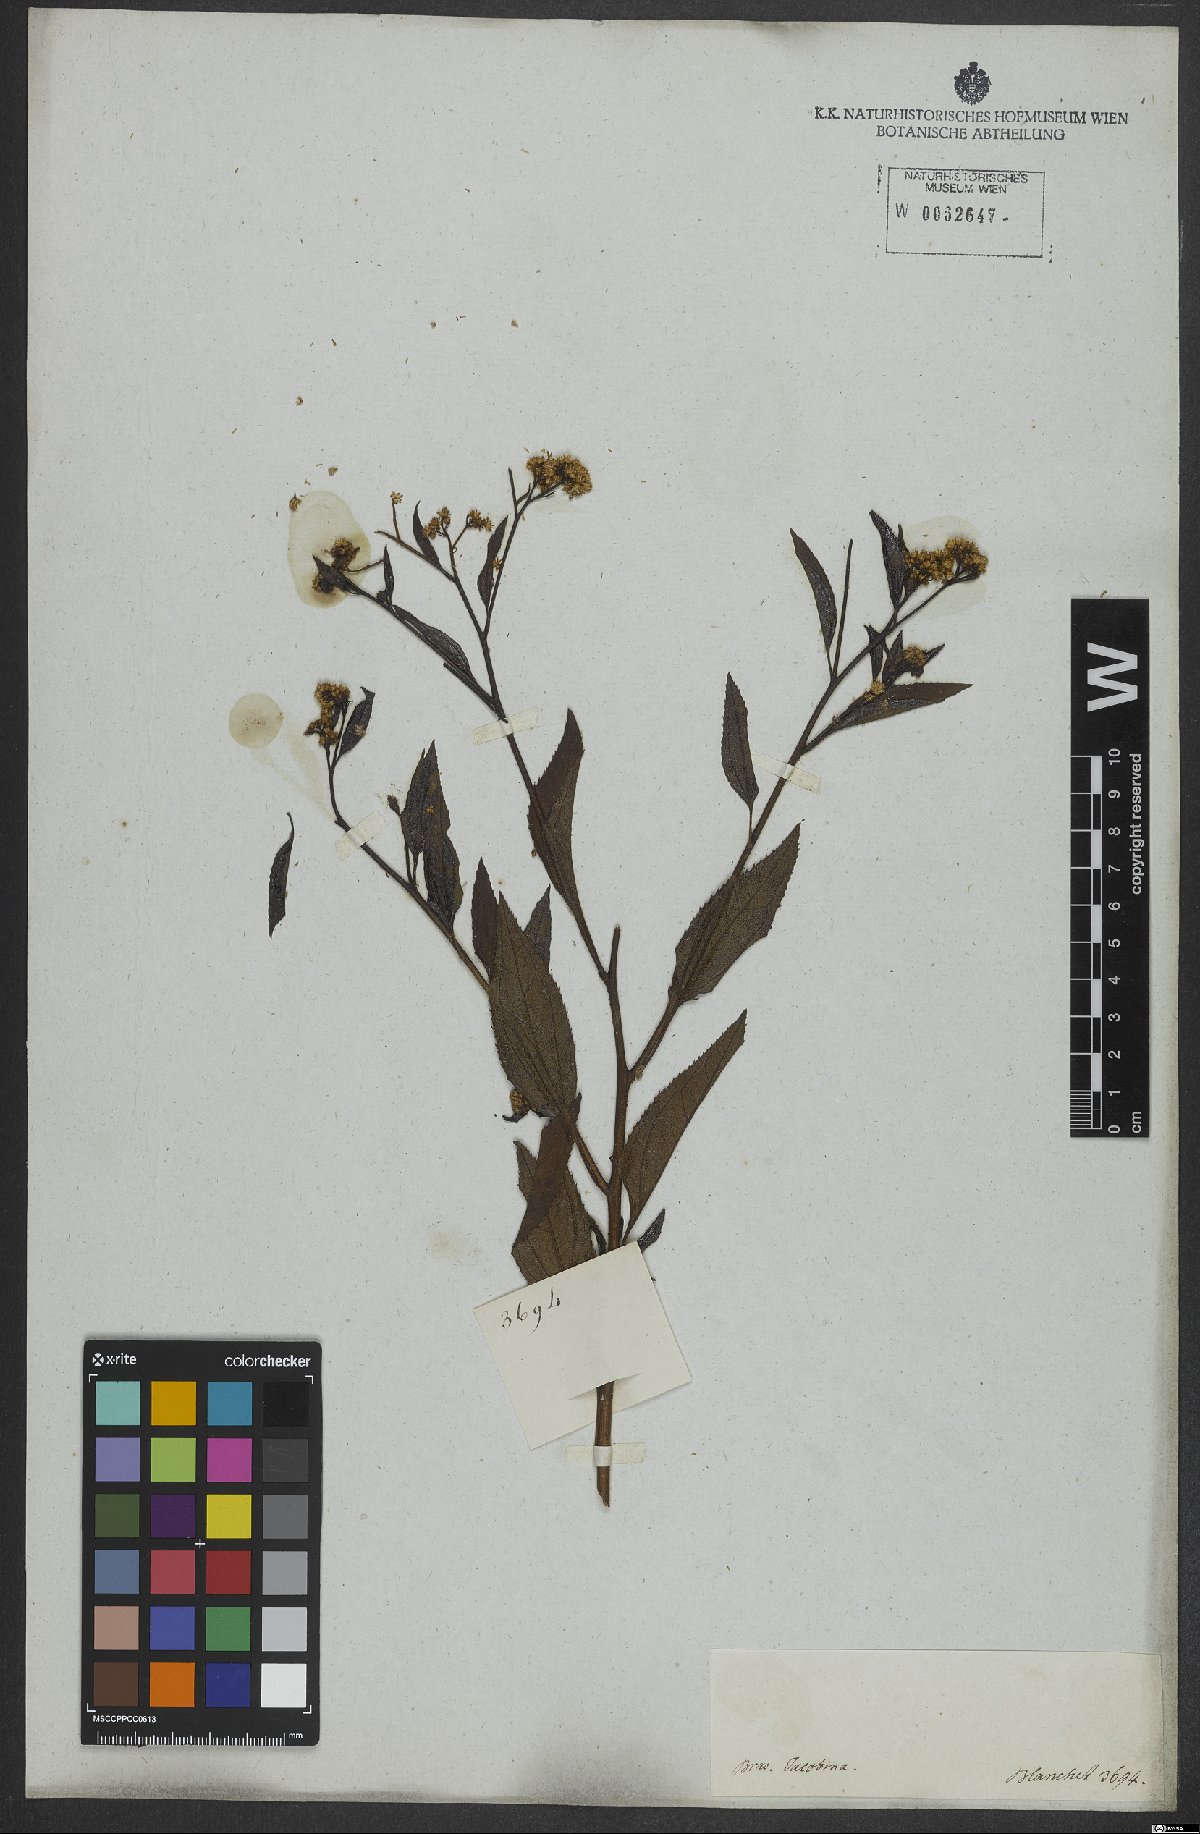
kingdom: Plantae
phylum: Tracheophyta
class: Magnoliopsida
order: Asterales
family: Asteraceae
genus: Archibaccharis
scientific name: Archibaccharis vulneraria
